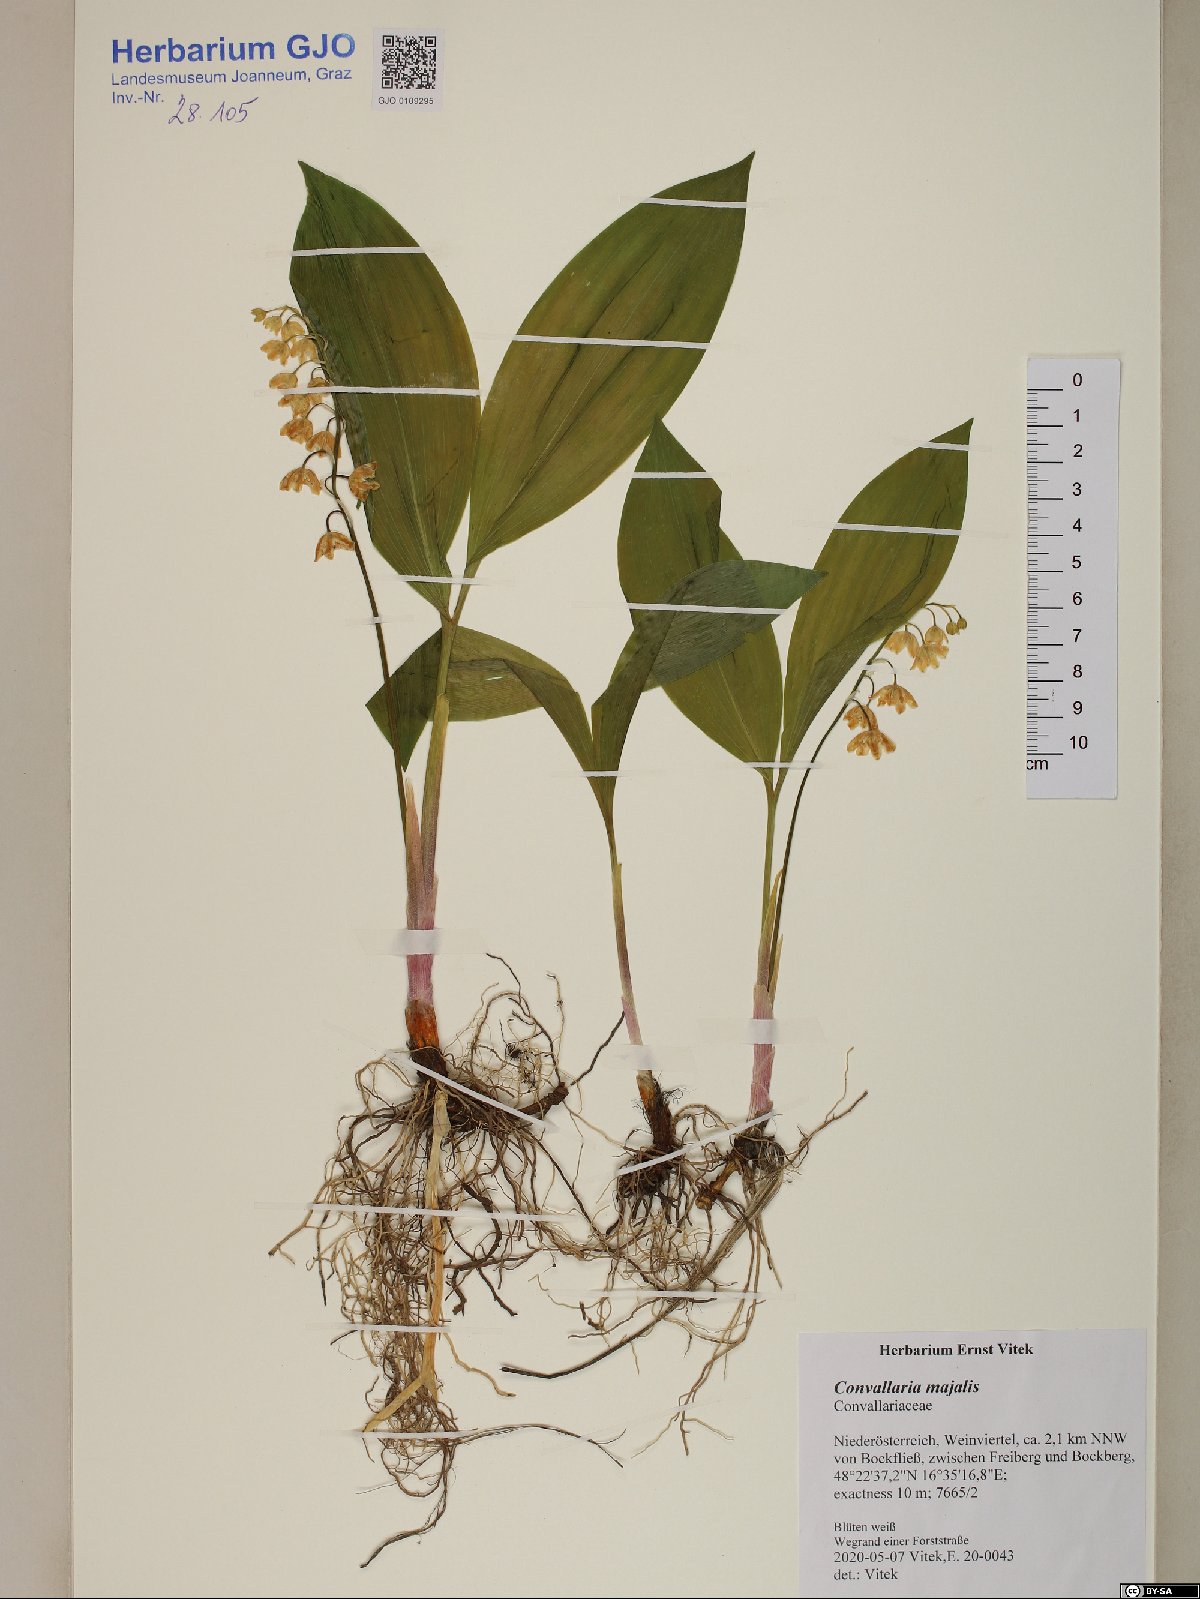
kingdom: Plantae
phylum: Tracheophyta
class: Liliopsida
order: Asparagales
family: Asparagaceae
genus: Convallaria
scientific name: Convallaria majalis
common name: Lily-of-the-valley
